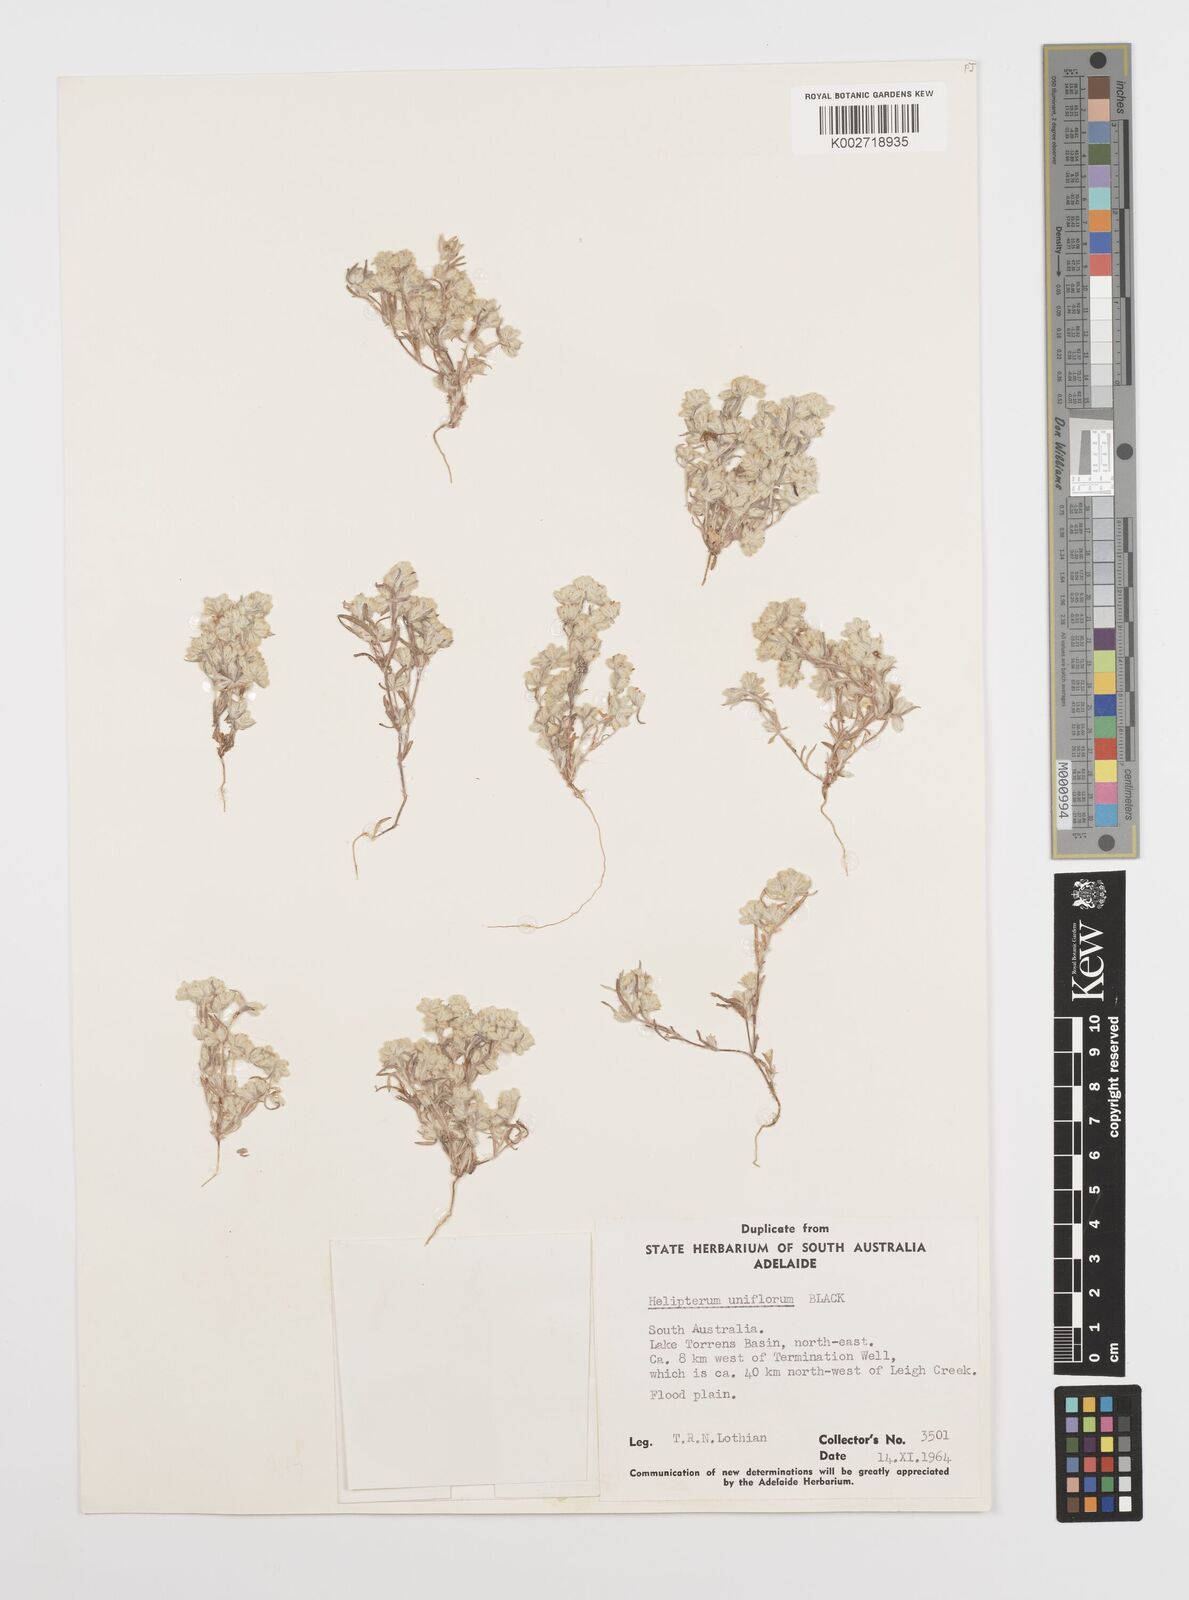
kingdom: Plantae
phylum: Tracheophyta
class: Magnoliopsida
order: Asterales
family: Asteraceae
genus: Rhodanthe
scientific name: Rhodanthe uniflora
